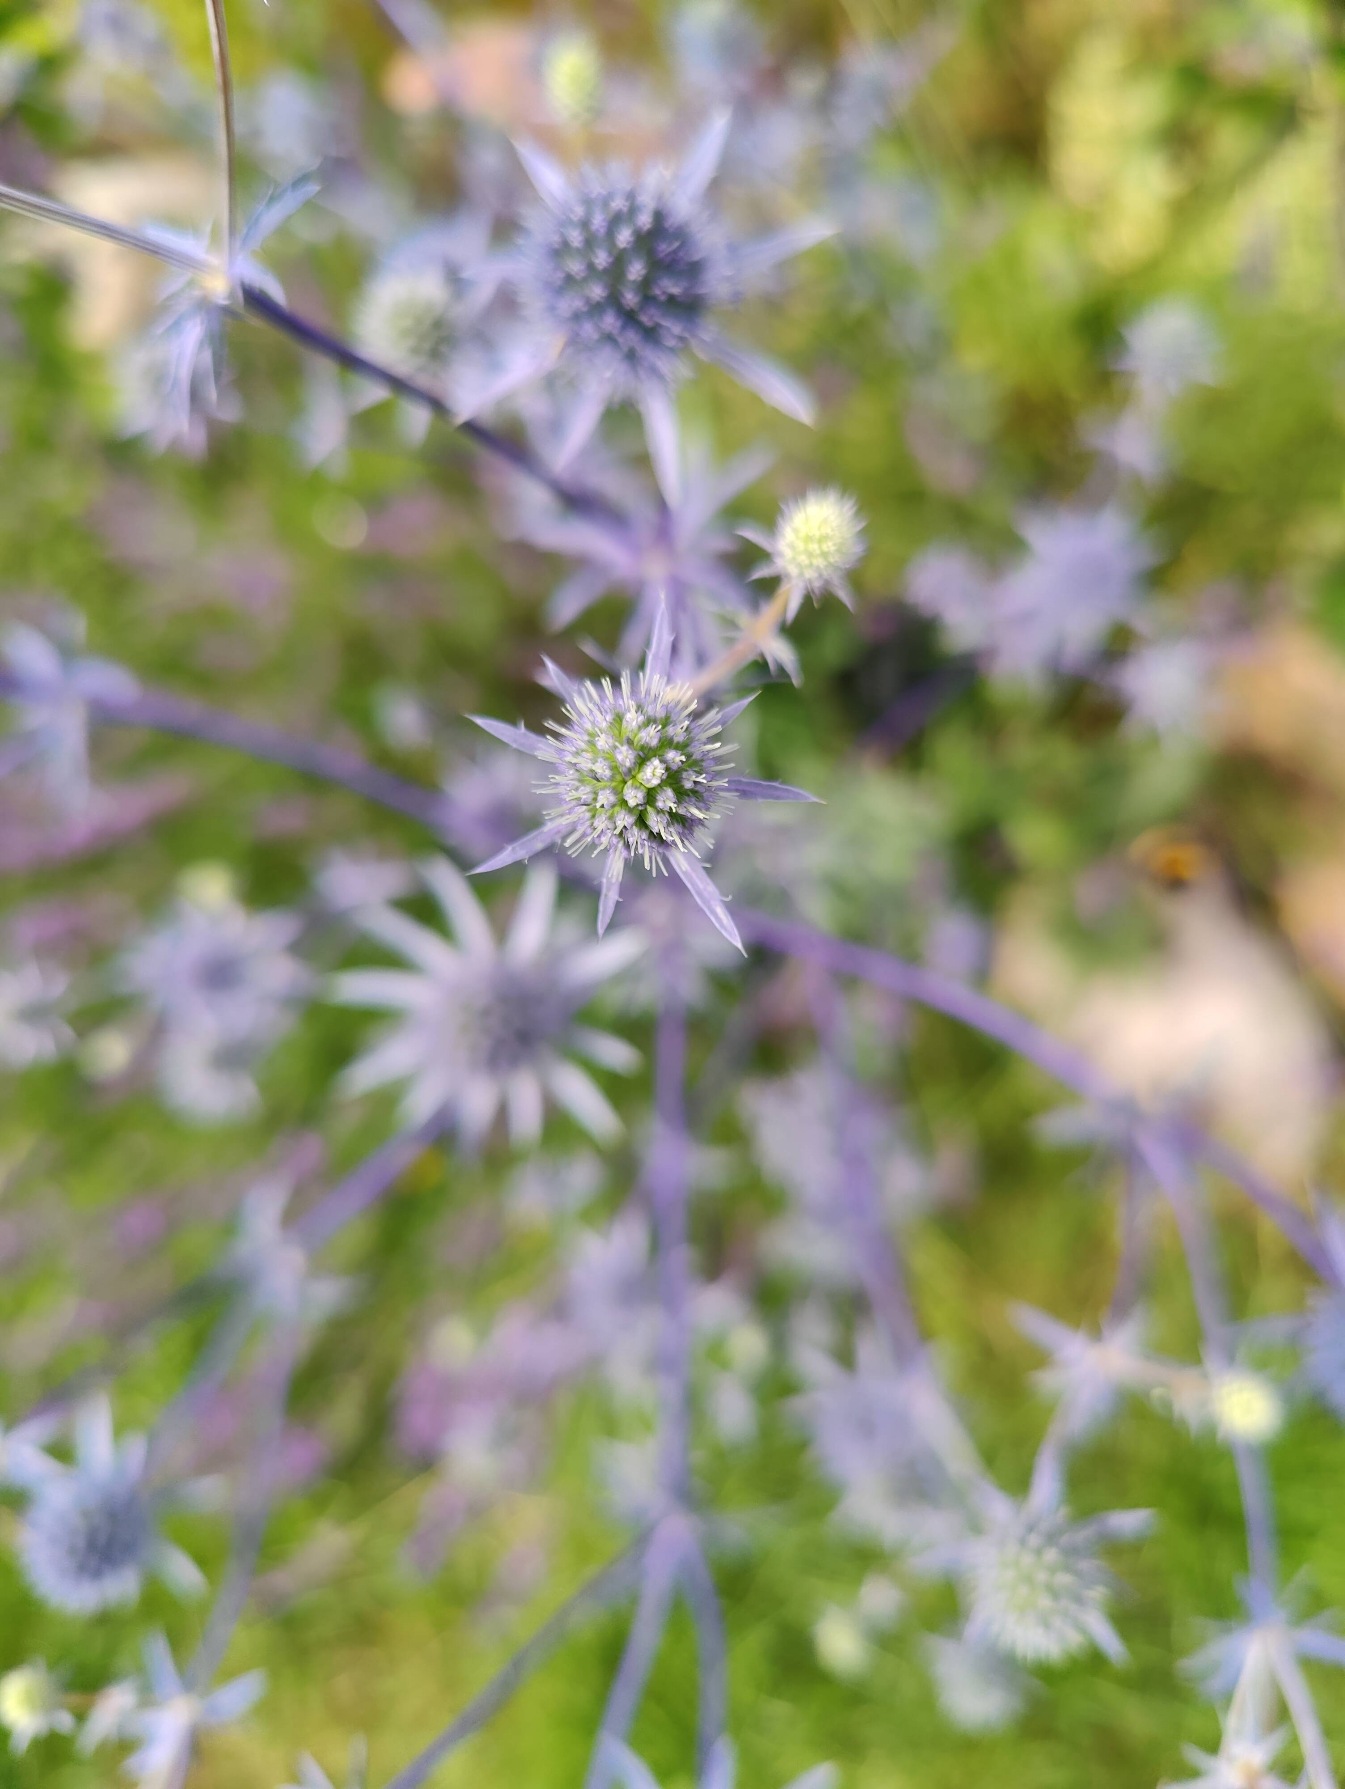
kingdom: Plantae
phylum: Tracheophyta
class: Magnoliopsida
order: Apiales
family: Apiaceae
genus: Eryngium
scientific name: Eryngium planum
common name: Russisk mandstro
